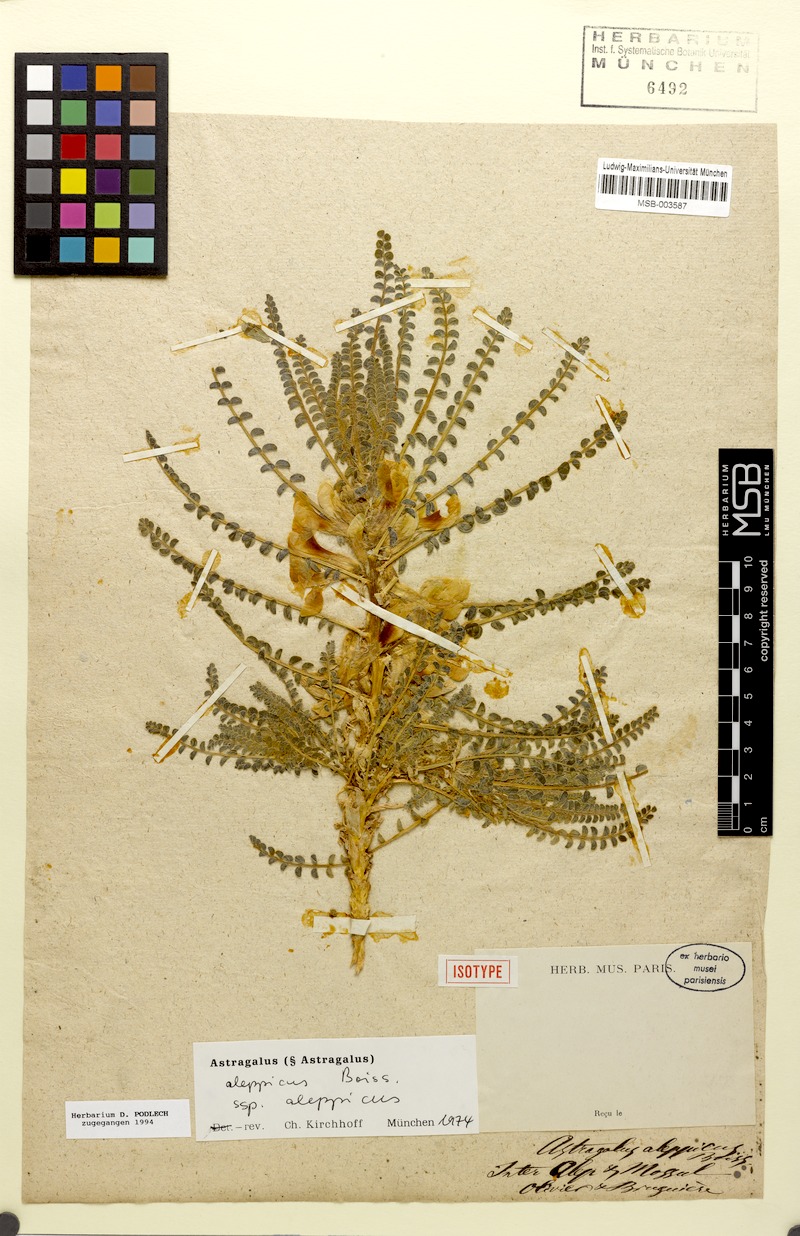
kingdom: Plantae
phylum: Tracheophyta
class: Magnoliopsida
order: Fabales
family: Fabaceae
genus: Astragalus
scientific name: Astragalus aleppicus
